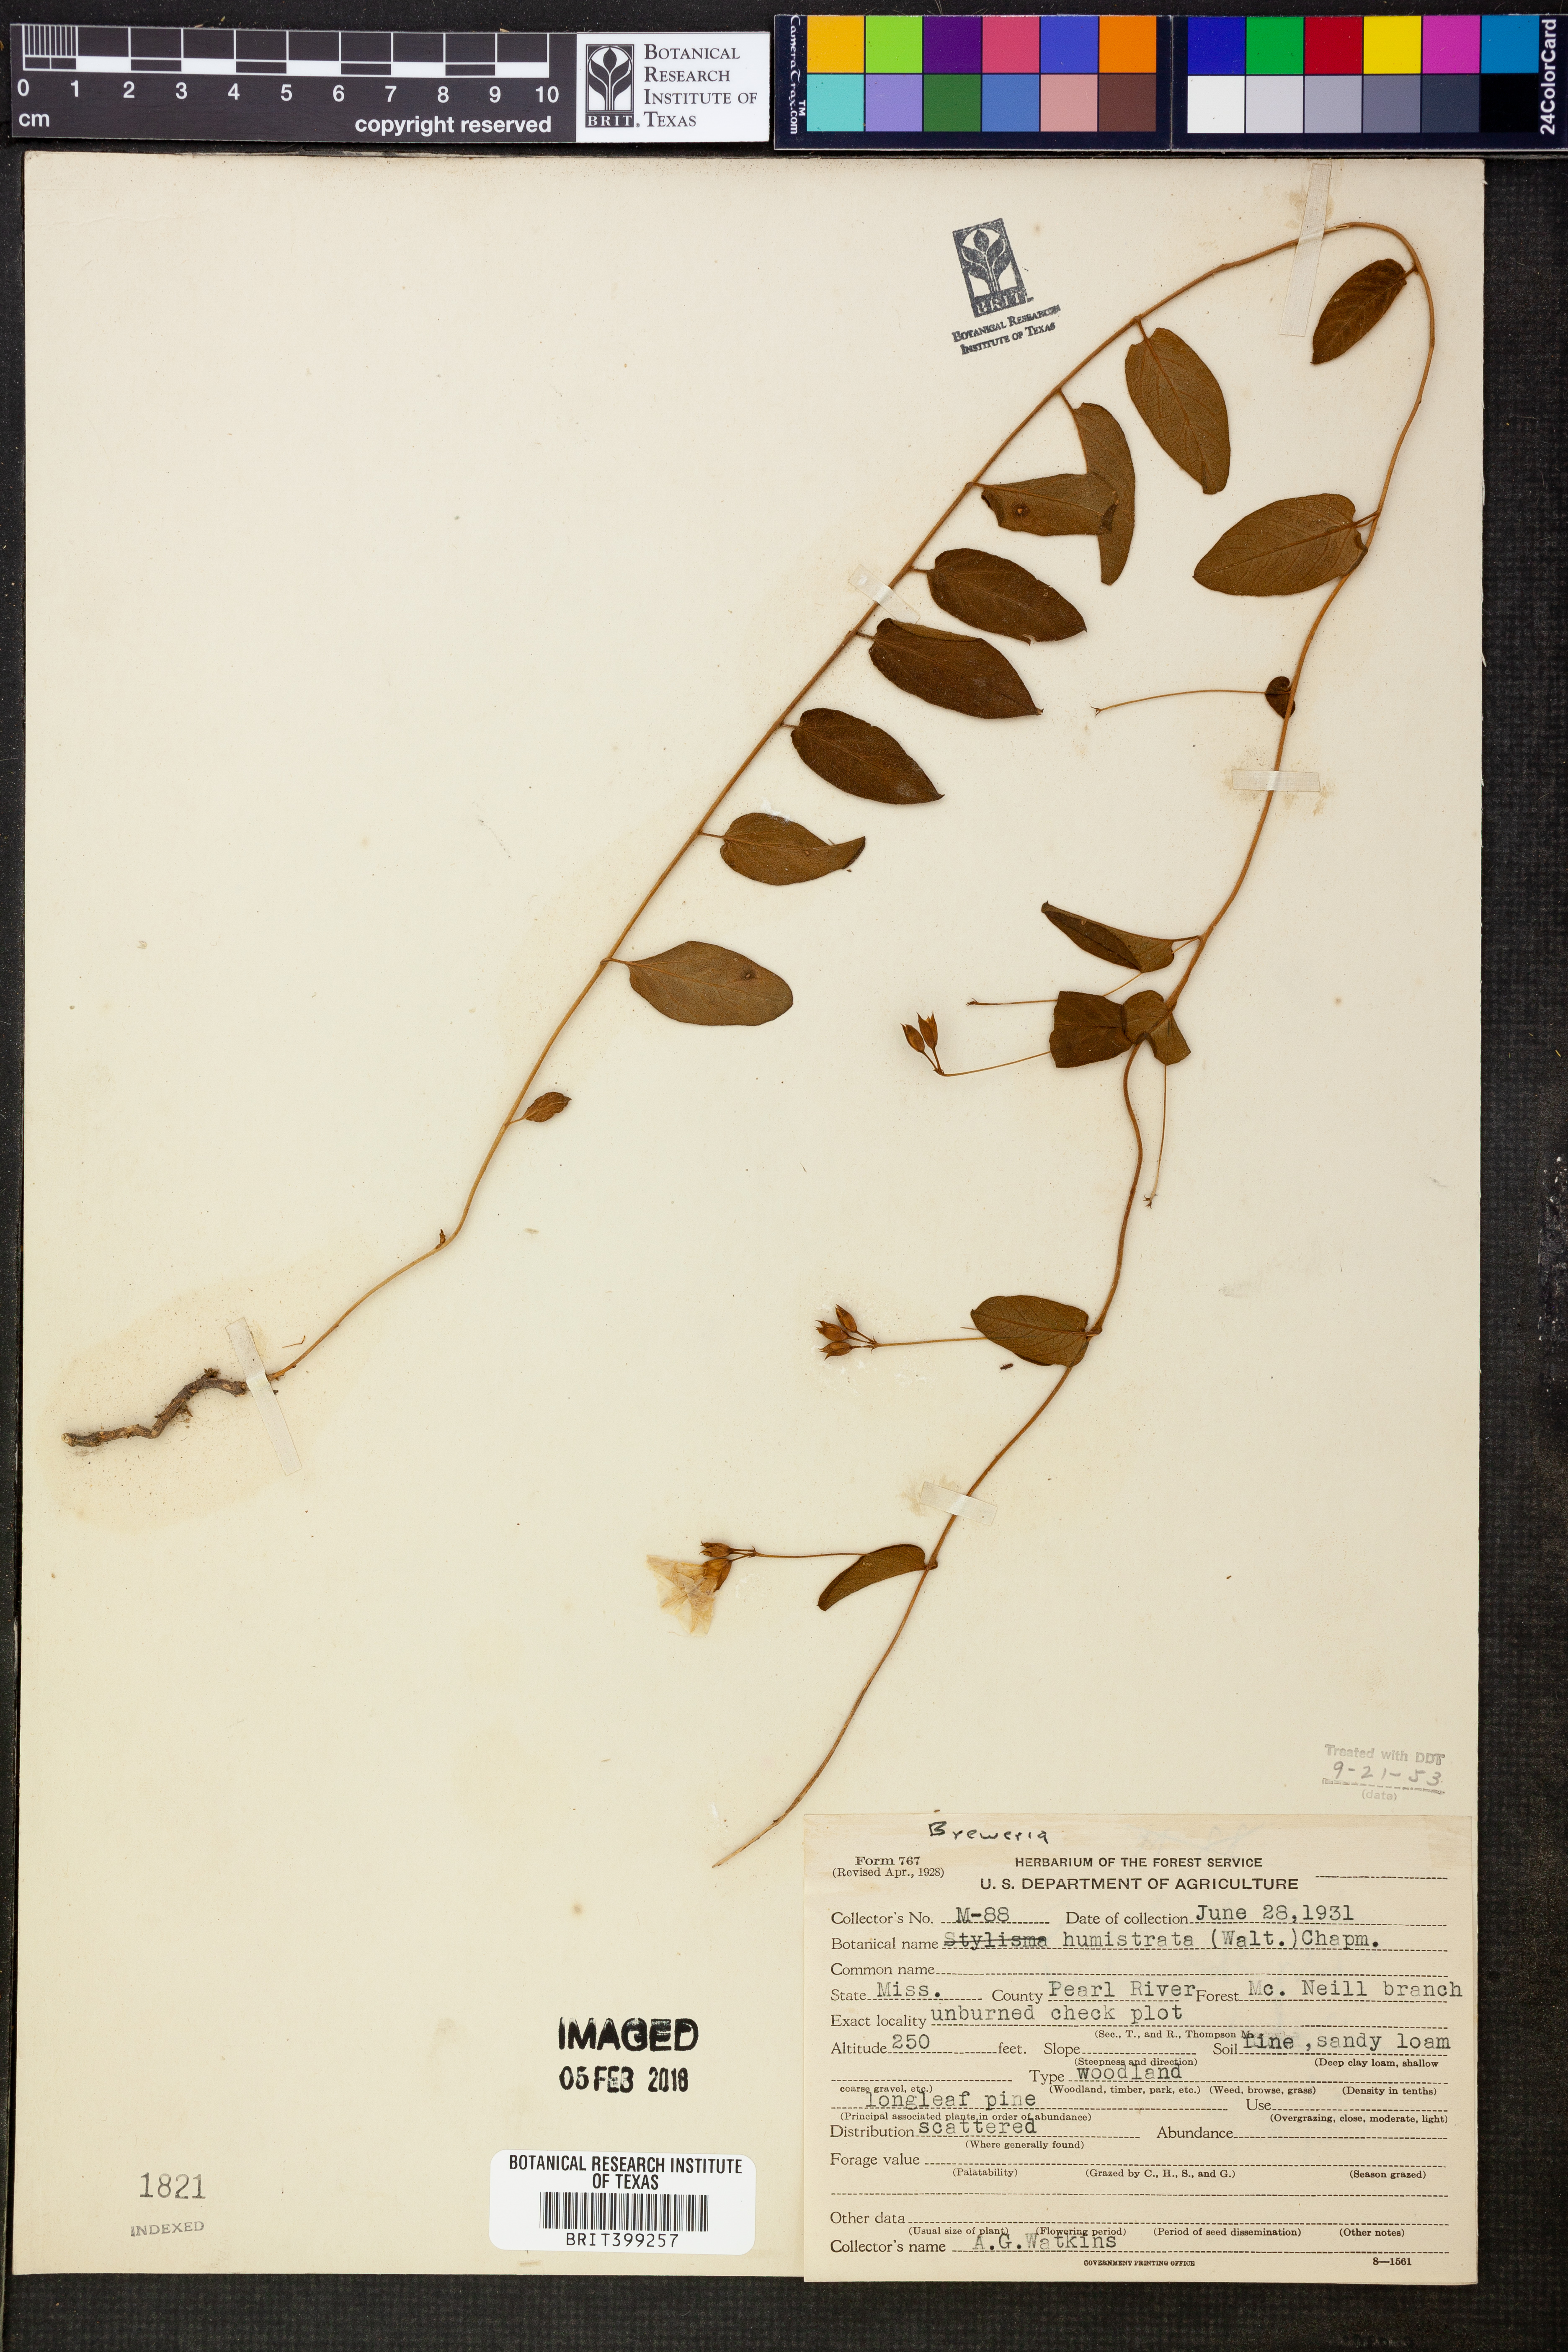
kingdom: Plantae
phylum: Tracheophyta
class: Magnoliopsida
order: Solanales
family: Convolvulaceae
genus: Stylisma
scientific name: Stylisma humistrata
